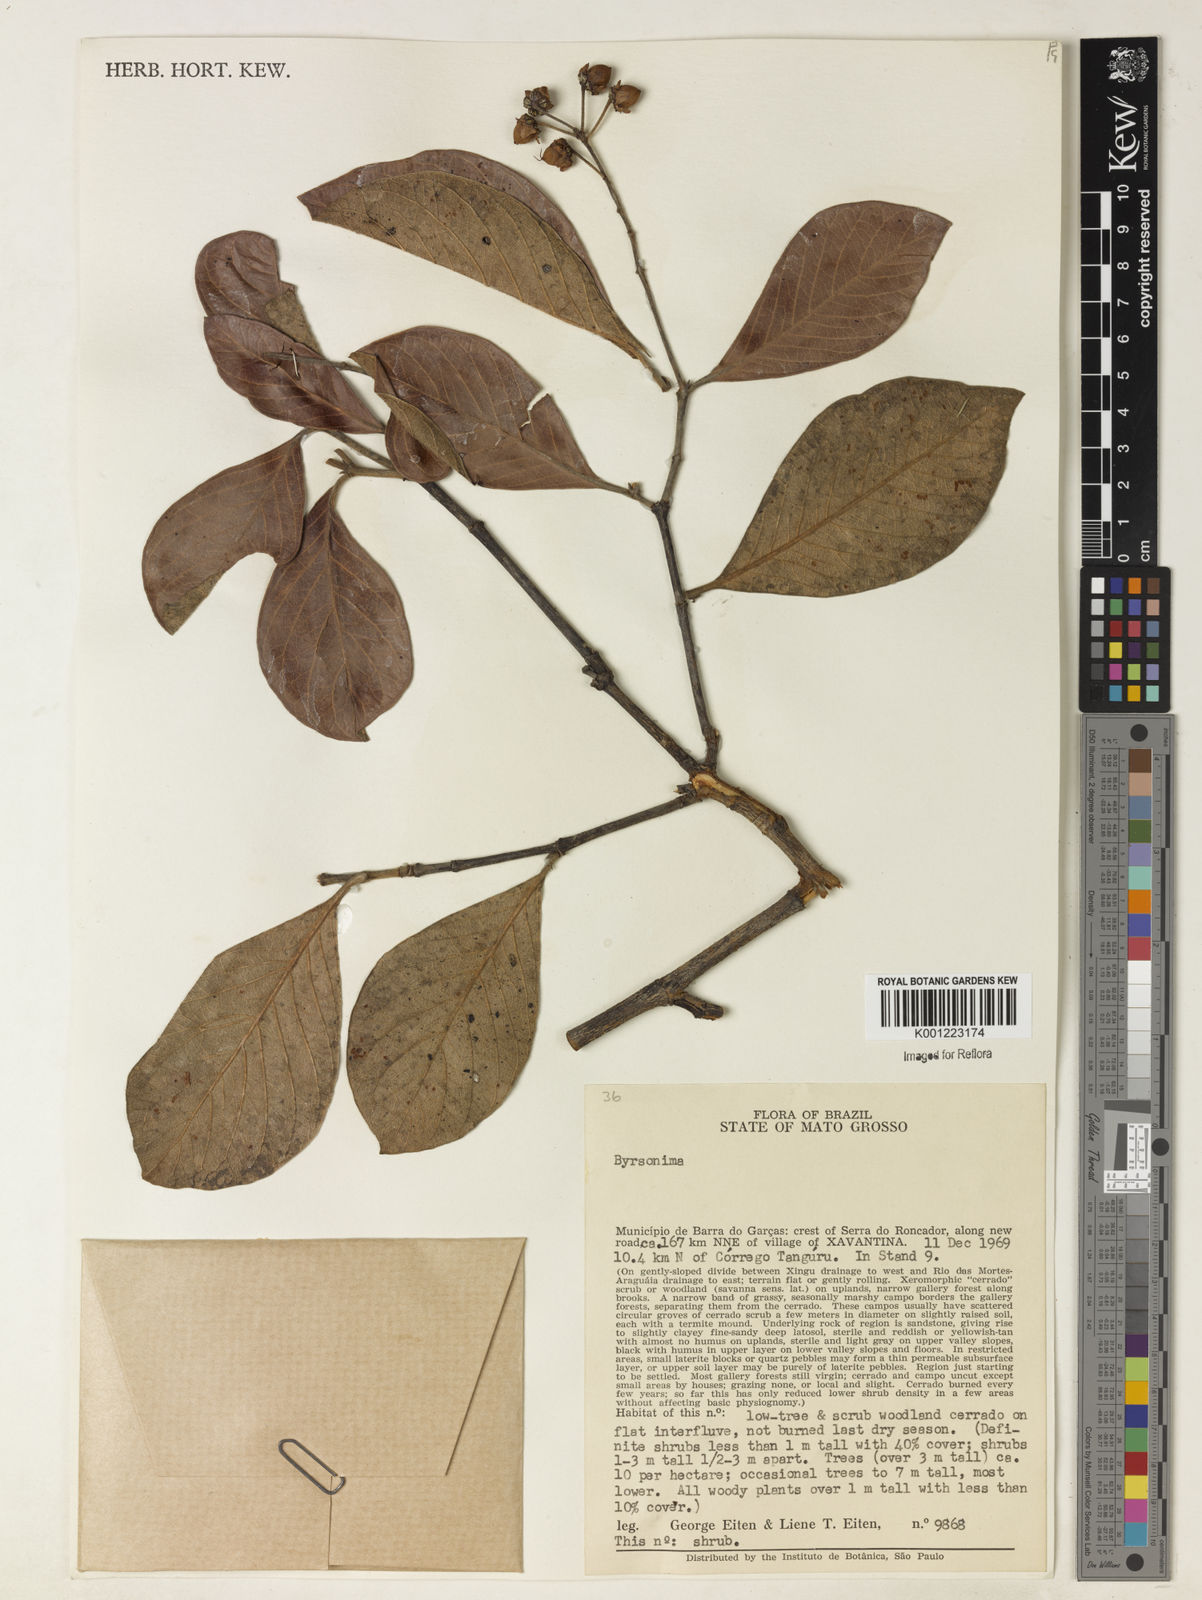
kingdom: Plantae
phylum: Tracheophyta
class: Magnoliopsida
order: Malpighiales
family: Malpighiaceae
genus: Byrsonima
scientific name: Byrsonima
